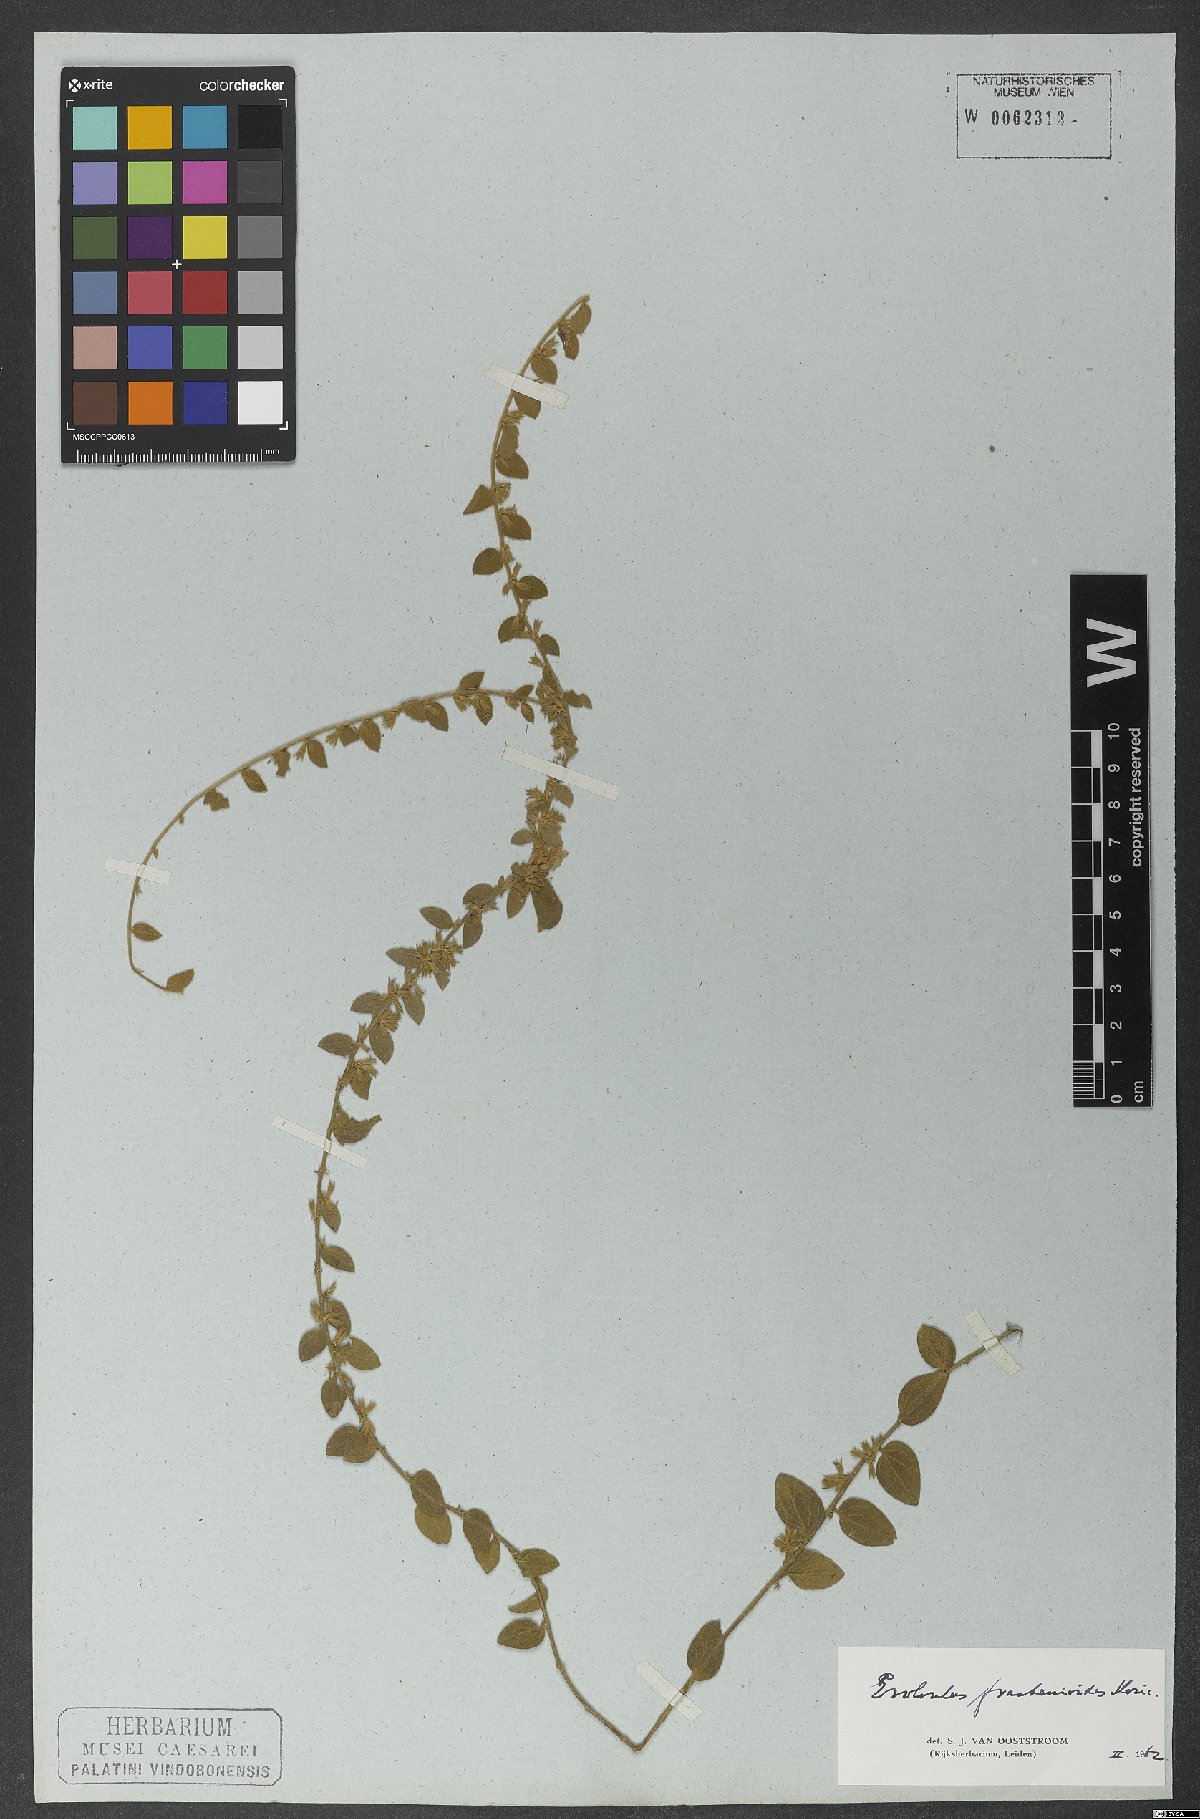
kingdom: Plantae
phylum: Tracheophyta
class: Magnoliopsida
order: Solanales
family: Convolvulaceae
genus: Evolvulus
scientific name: Evolvulus frankenioides
